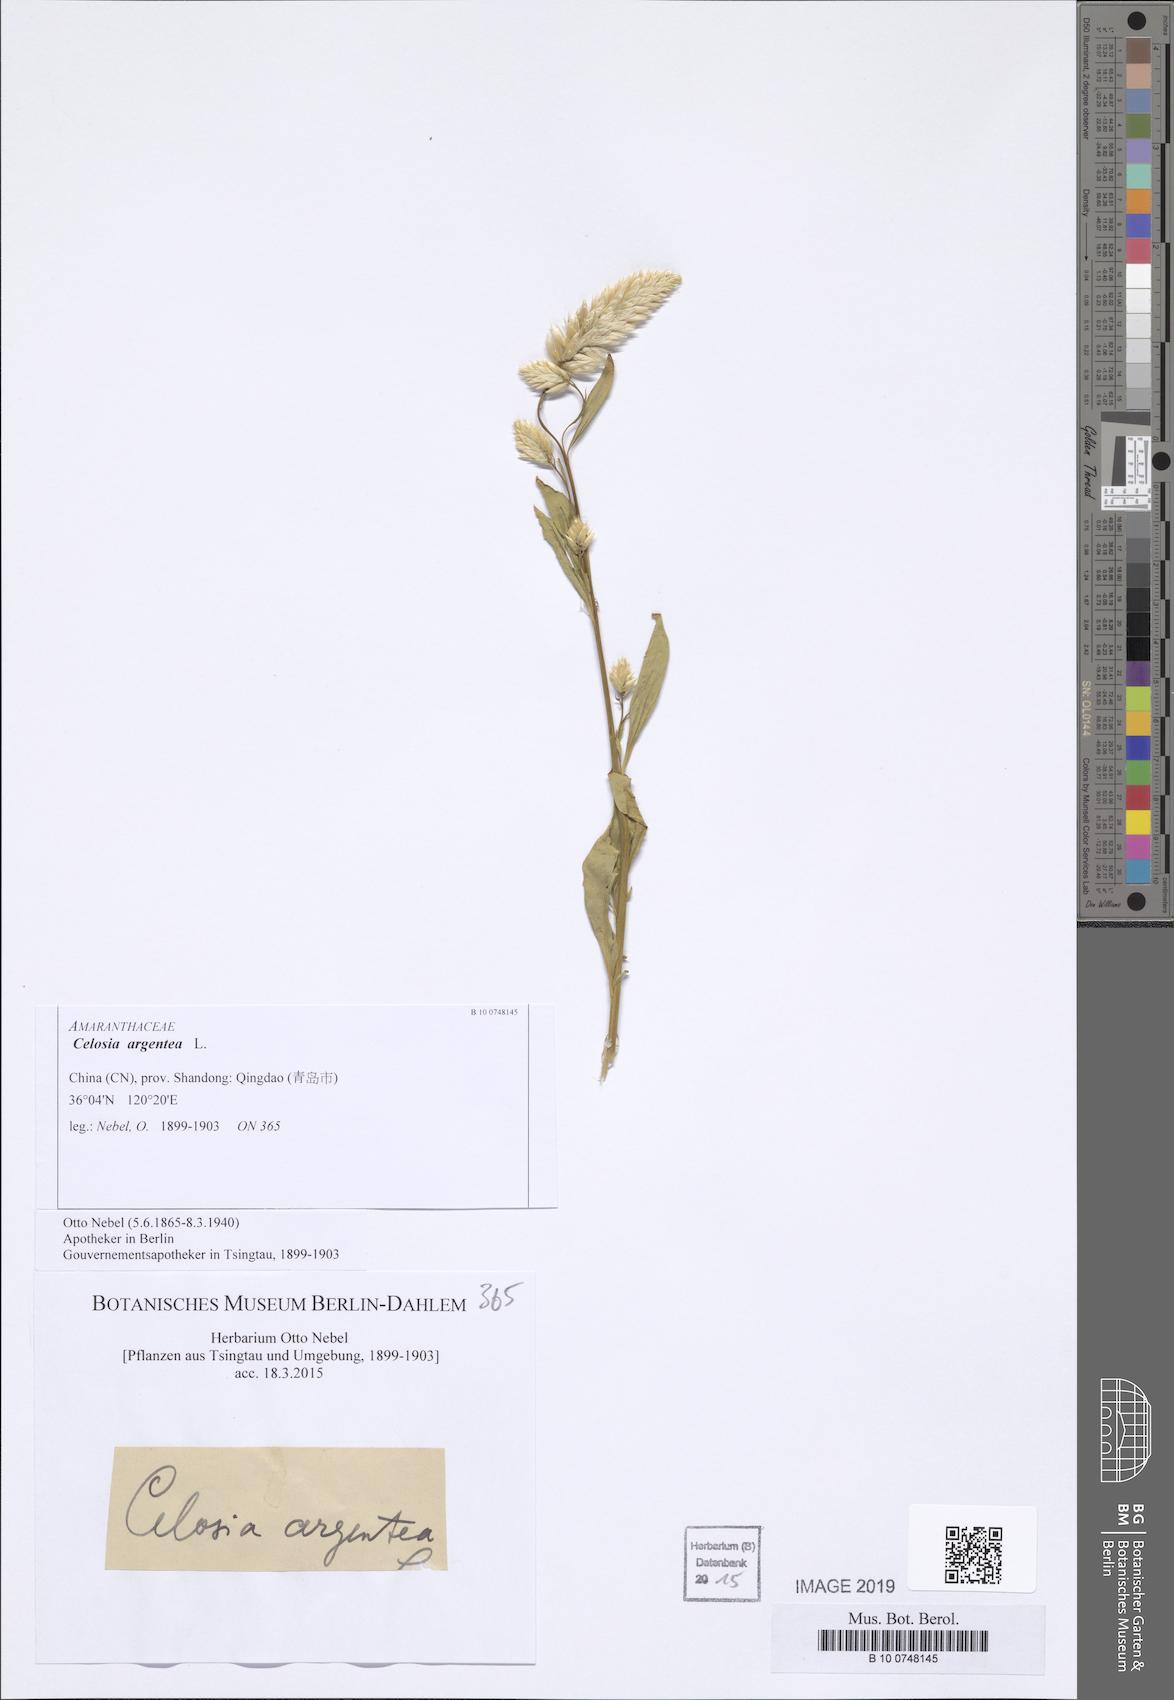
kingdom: Plantae
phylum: Tracheophyta
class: Magnoliopsida
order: Caryophyllales
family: Amaranthaceae
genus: Celosia
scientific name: Celosia argentea
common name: Feather cockscomb
